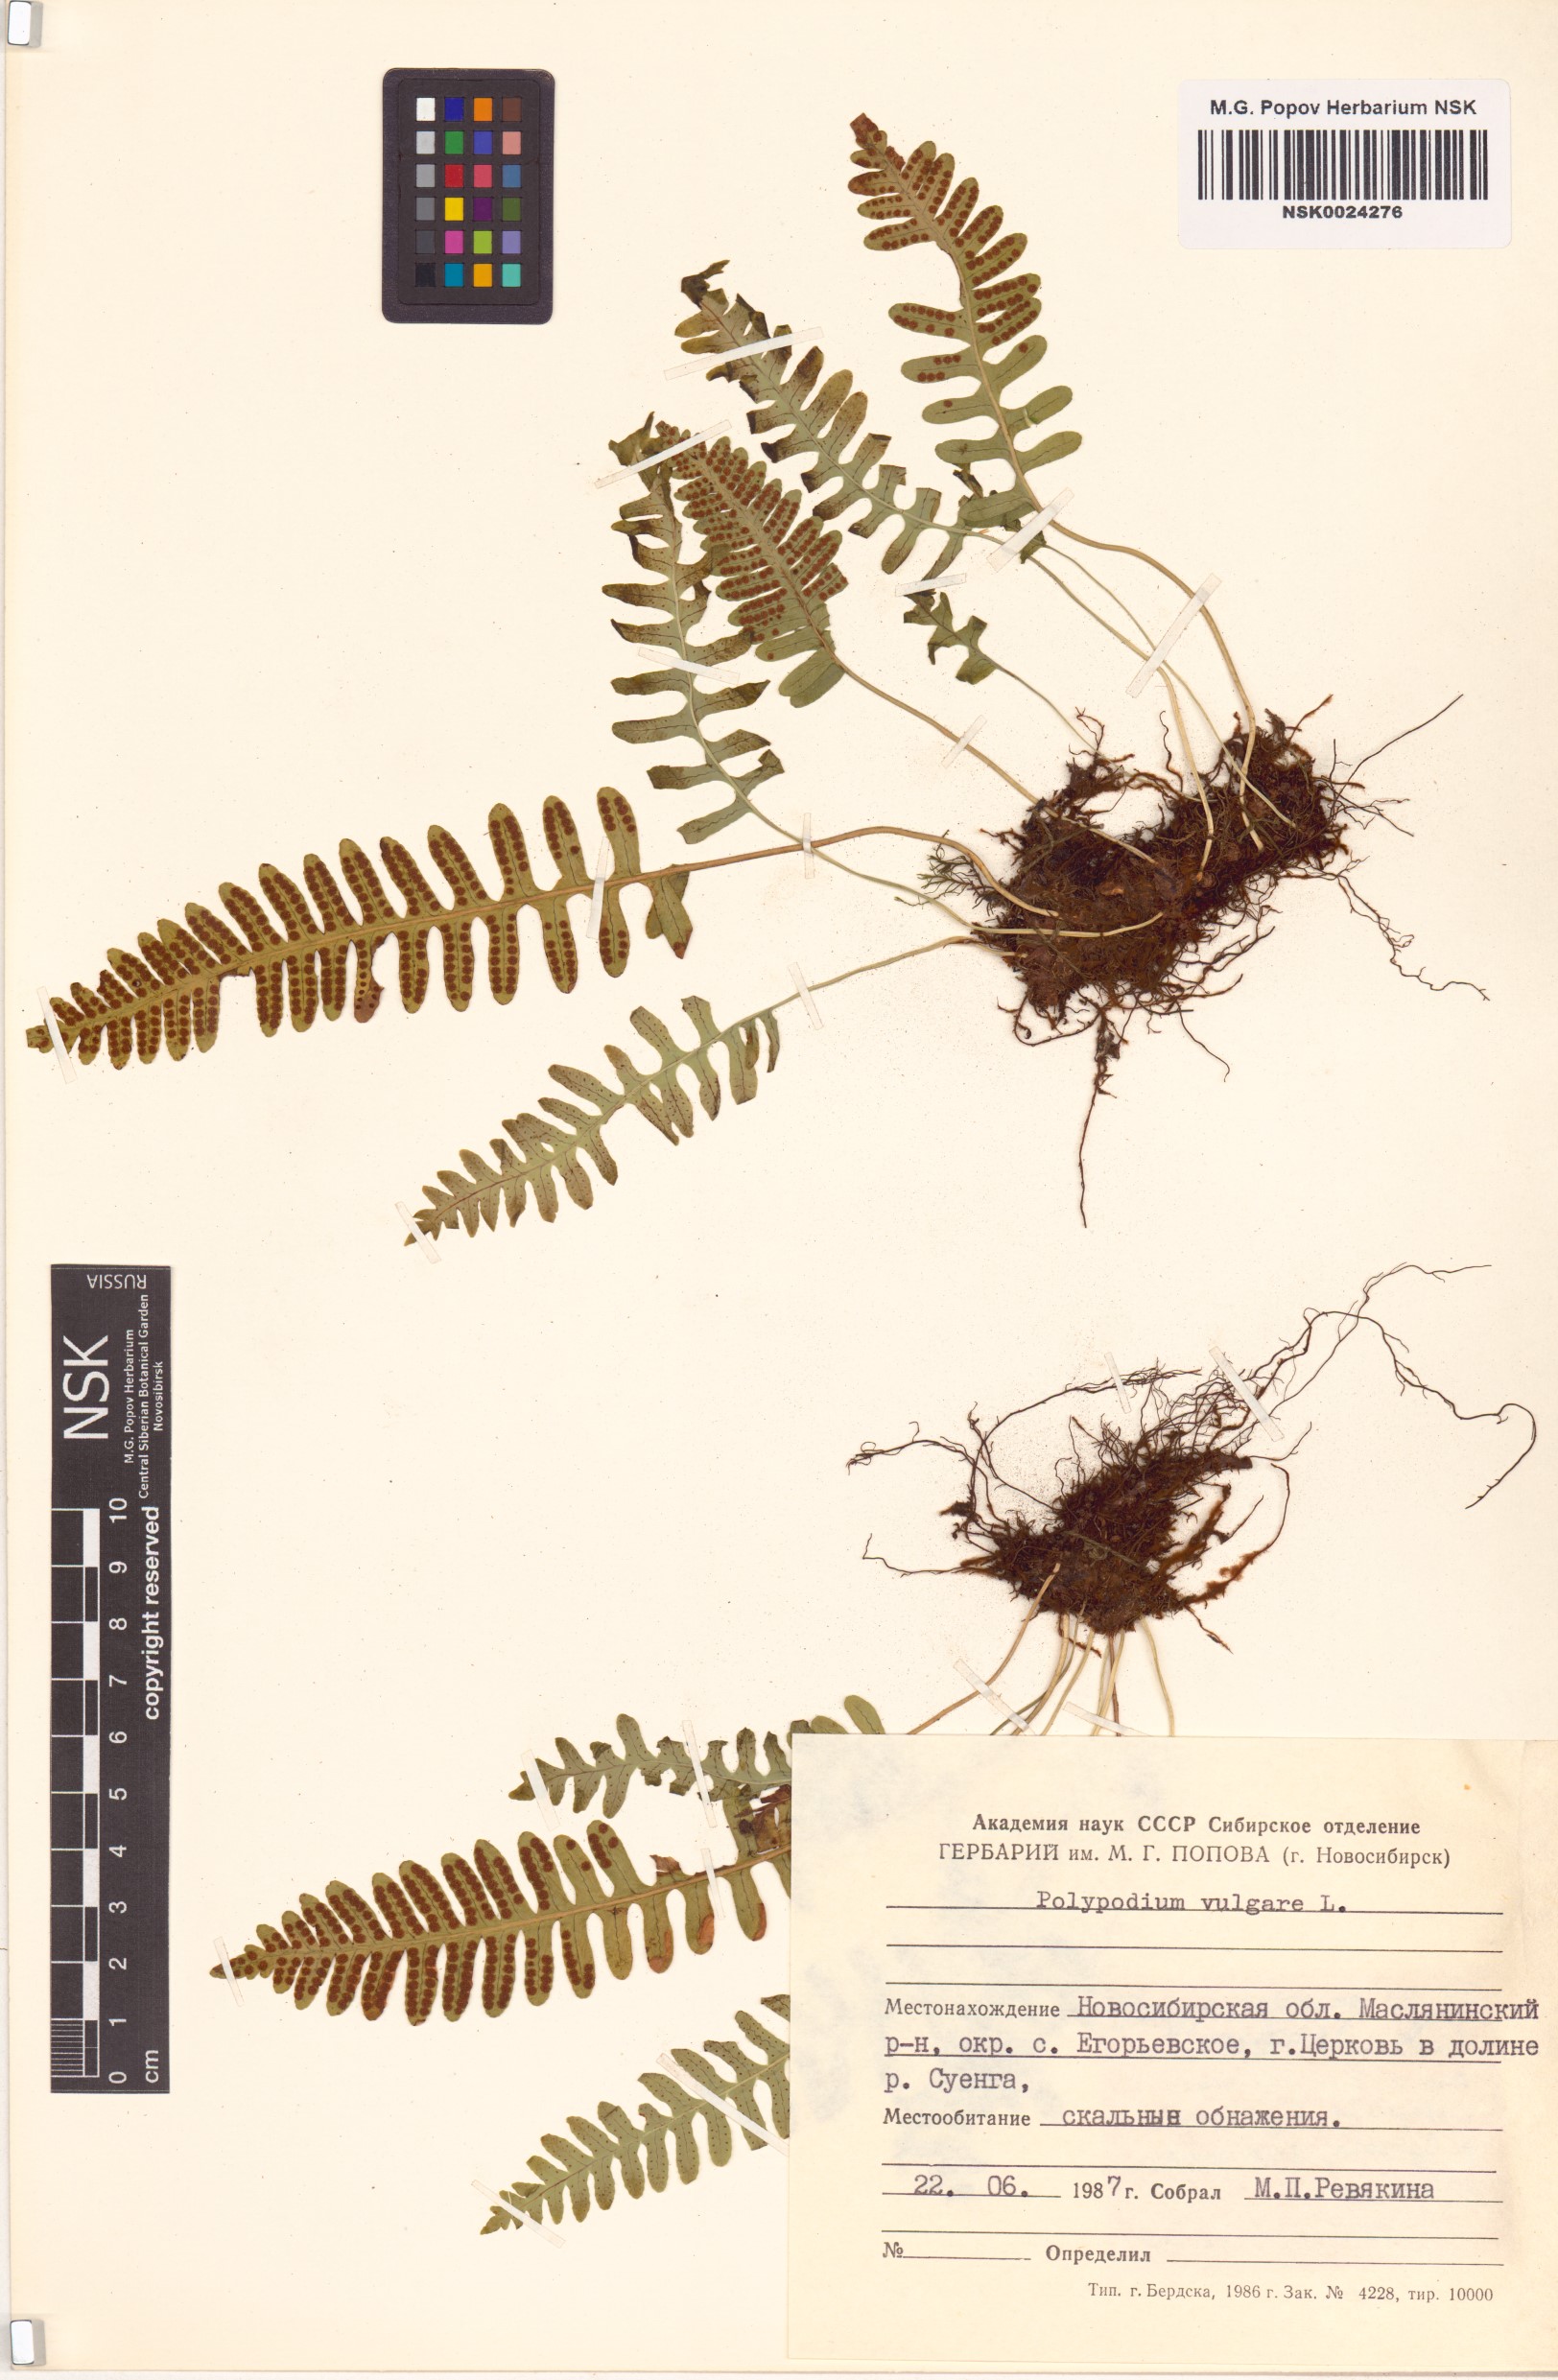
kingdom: Plantae
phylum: Tracheophyta
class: Polypodiopsida
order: Polypodiales
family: Polypodiaceae
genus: Polypodium
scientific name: Polypodium vulgare
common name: Common polypody
